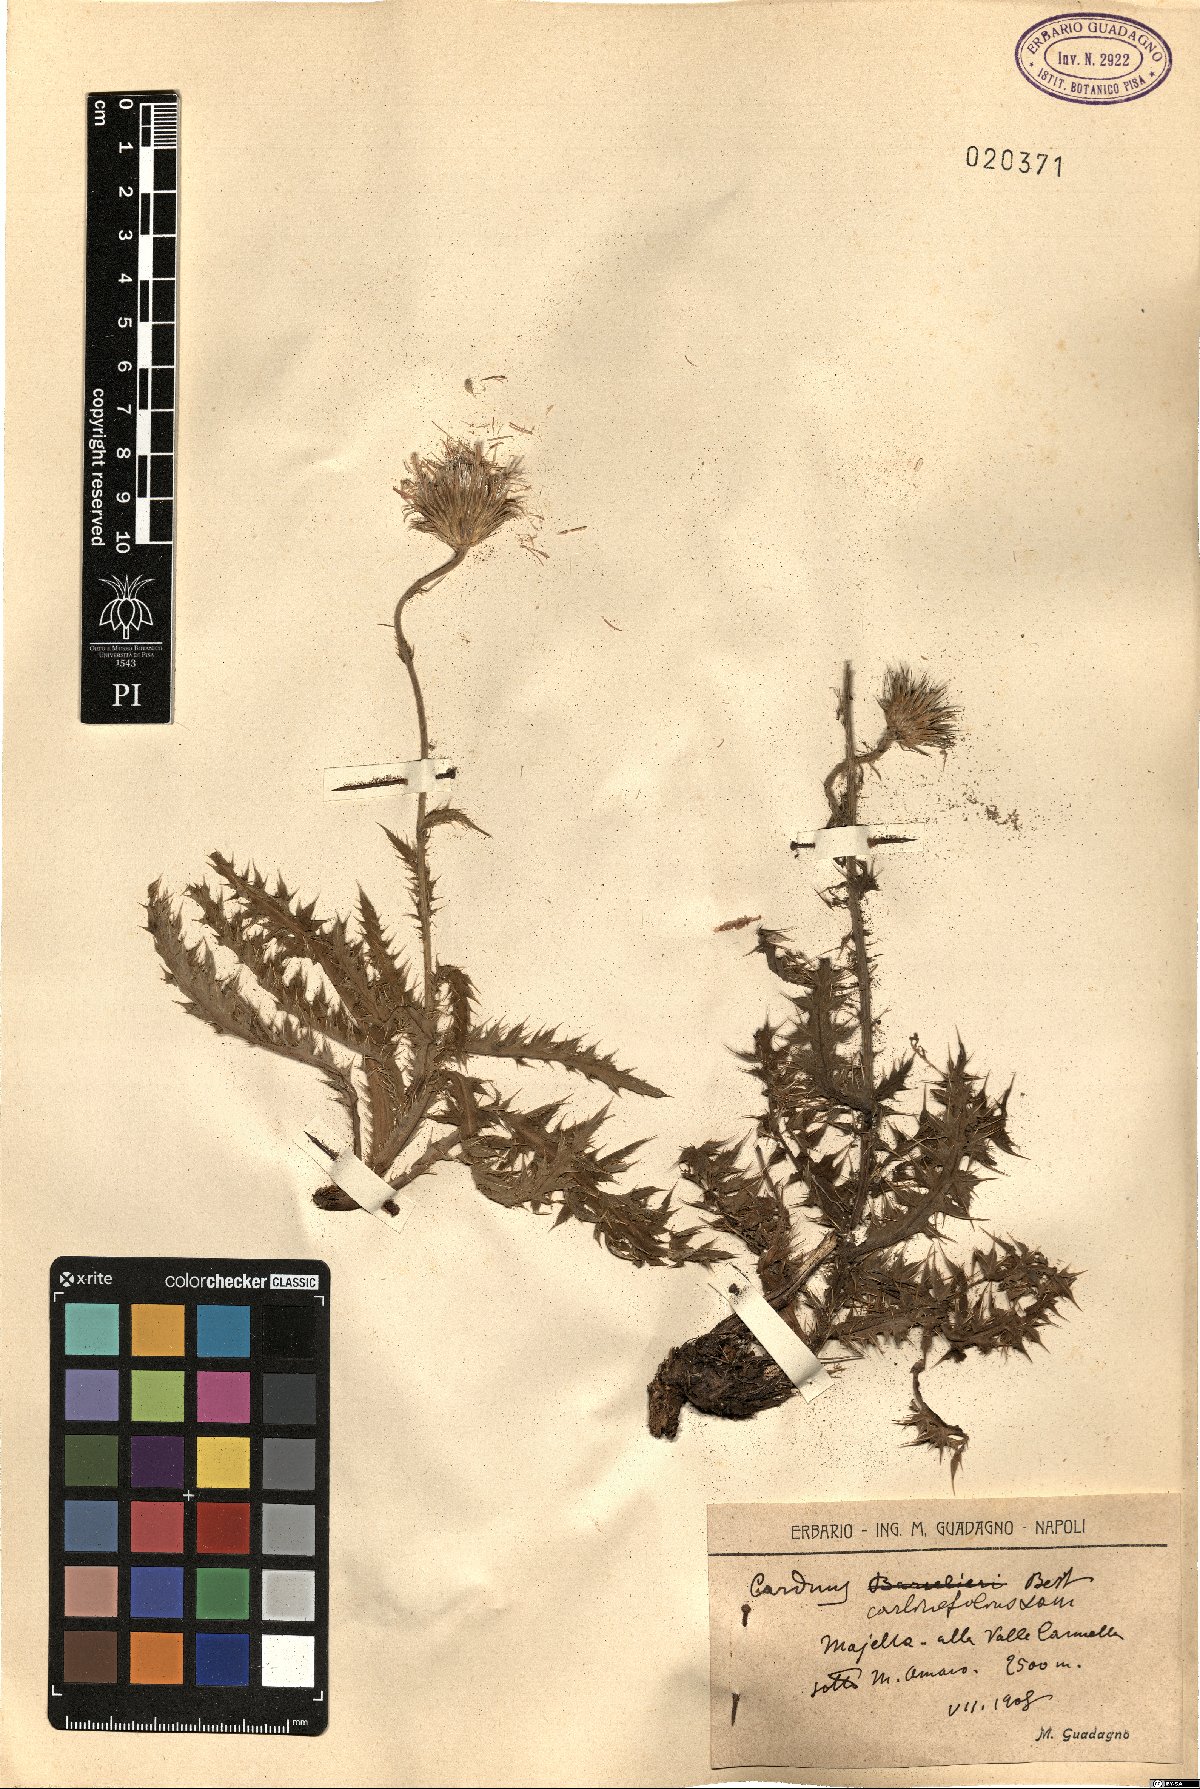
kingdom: Plantae
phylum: Tracheophyta
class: Magnoliopsida
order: Asterales
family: Asteraceae
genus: Carduus
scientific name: Carduus carlinifolius
